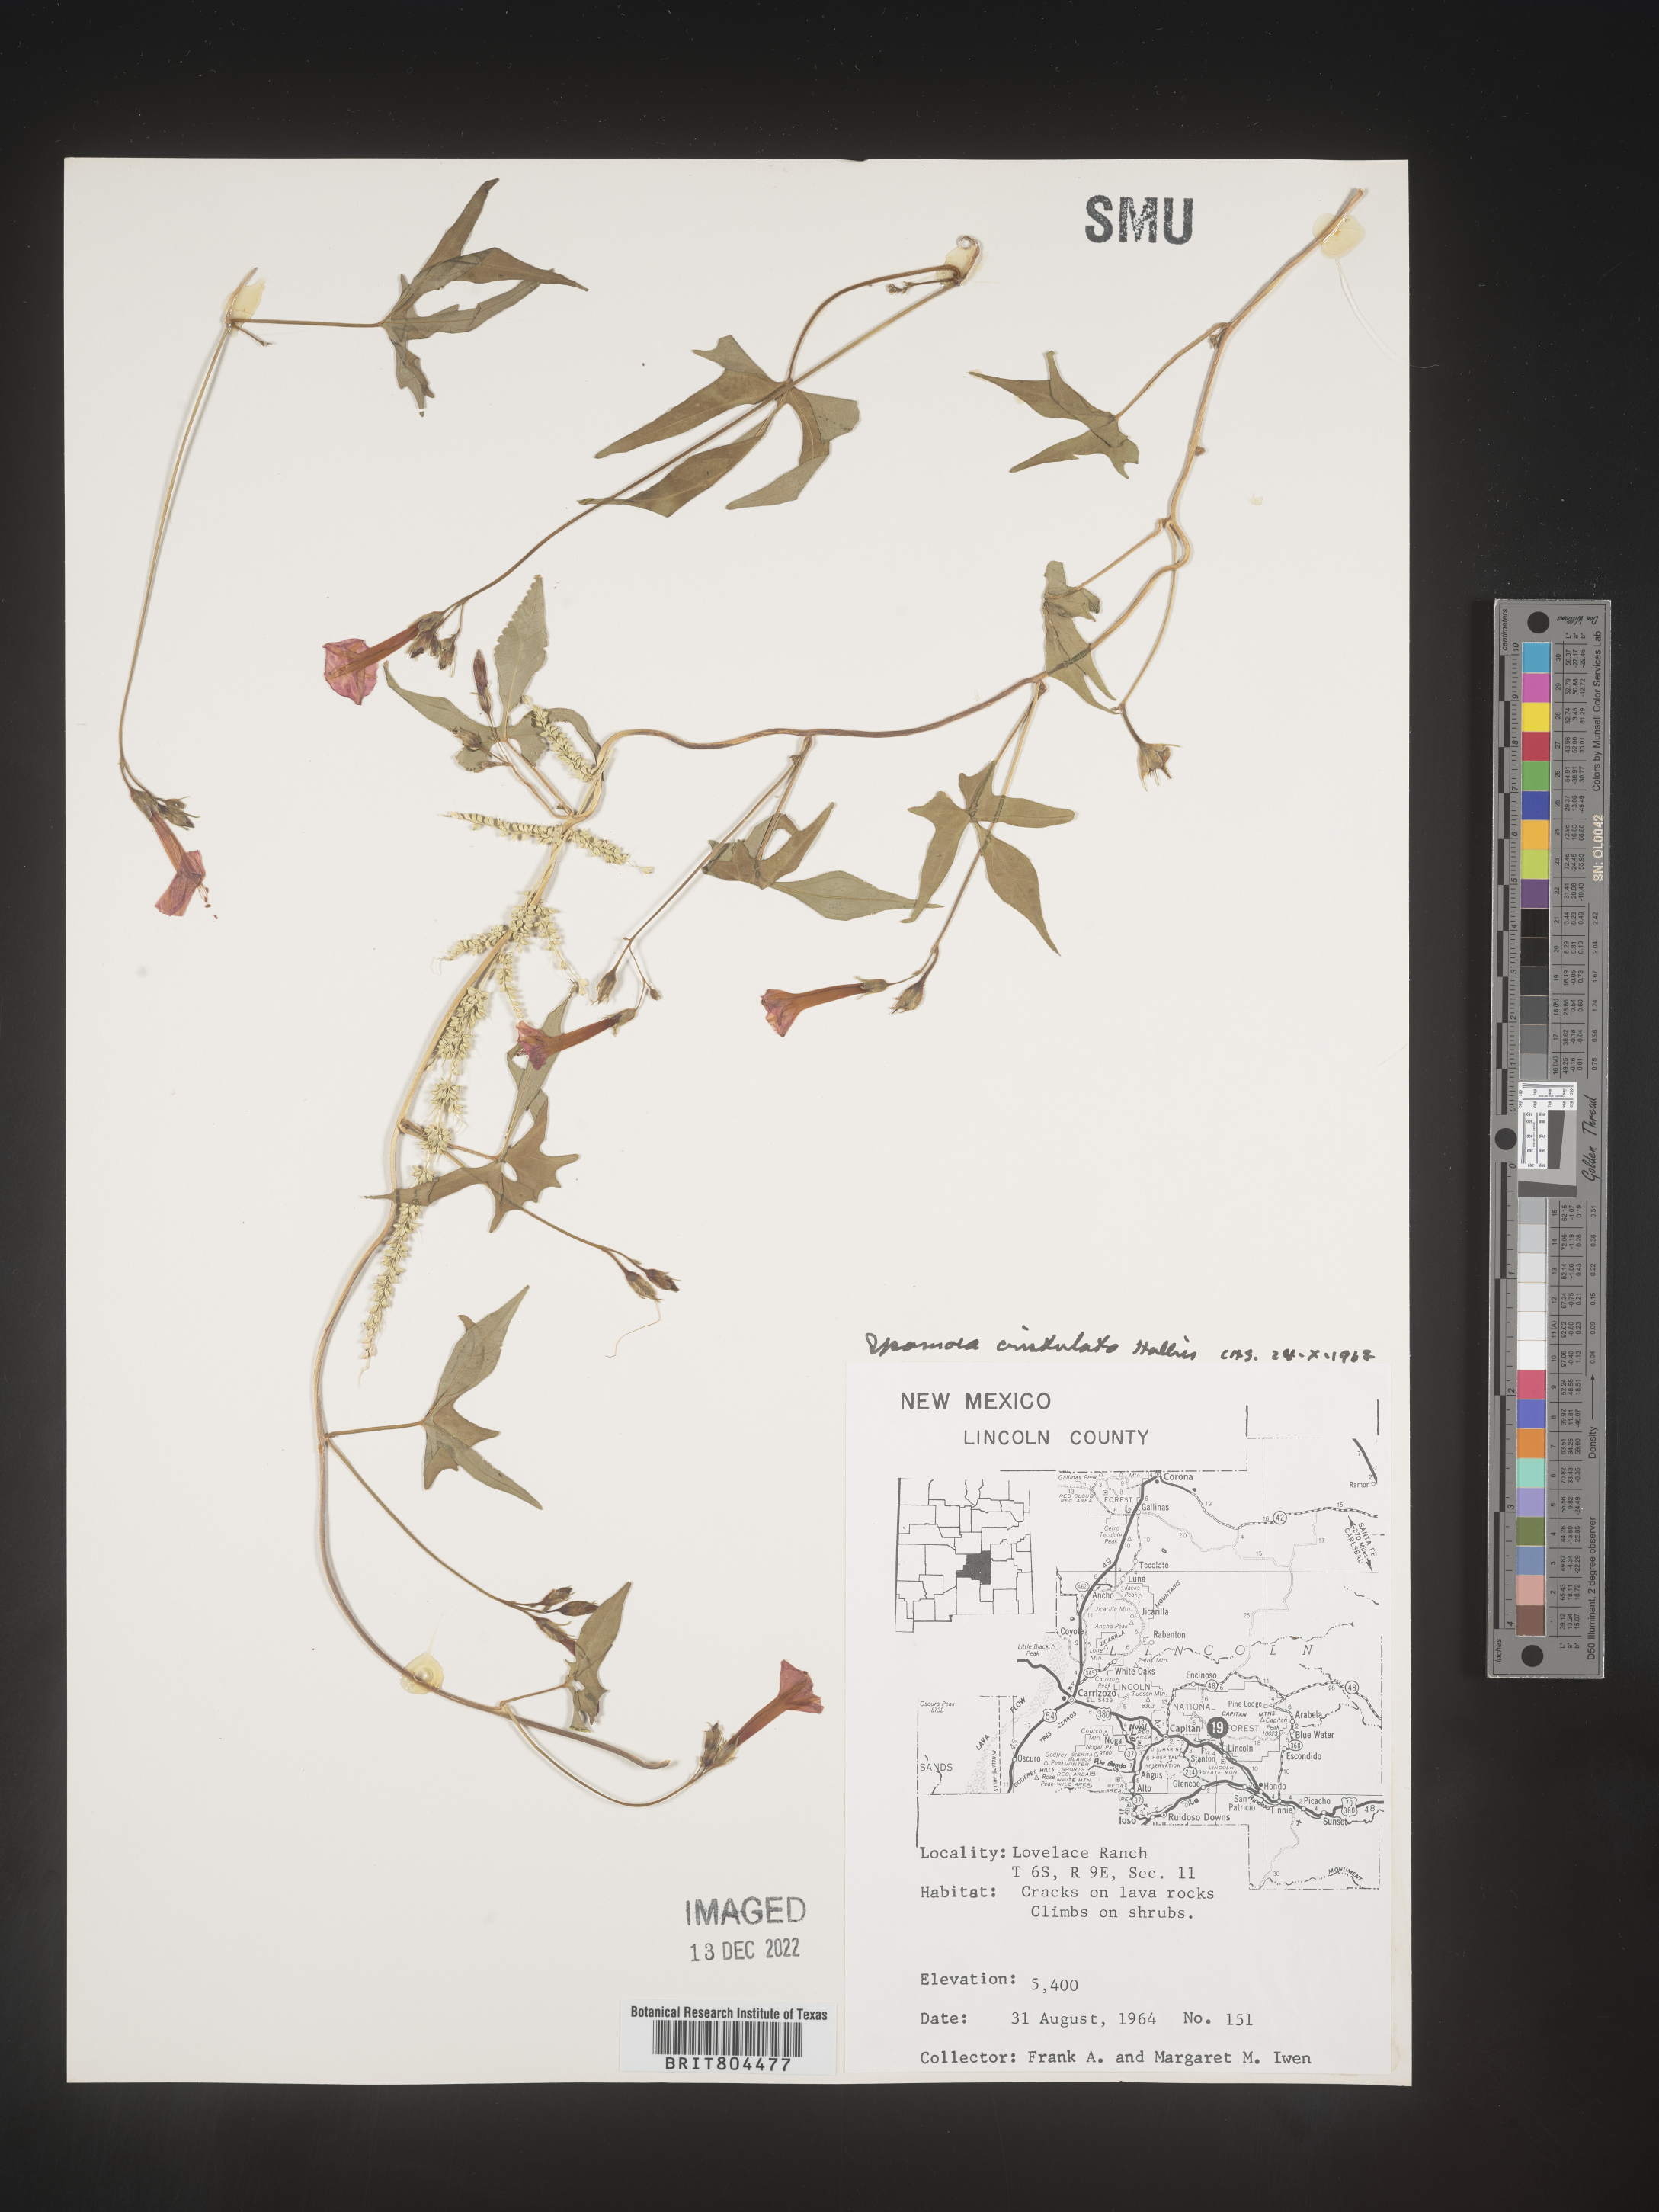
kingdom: Plantae
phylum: Tracheophyta
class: Magnoliopsida
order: Solanales
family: Convolvulaceae
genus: Ipomoea
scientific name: Ipomoea cristulata
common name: Trans-pecos morning-glory
